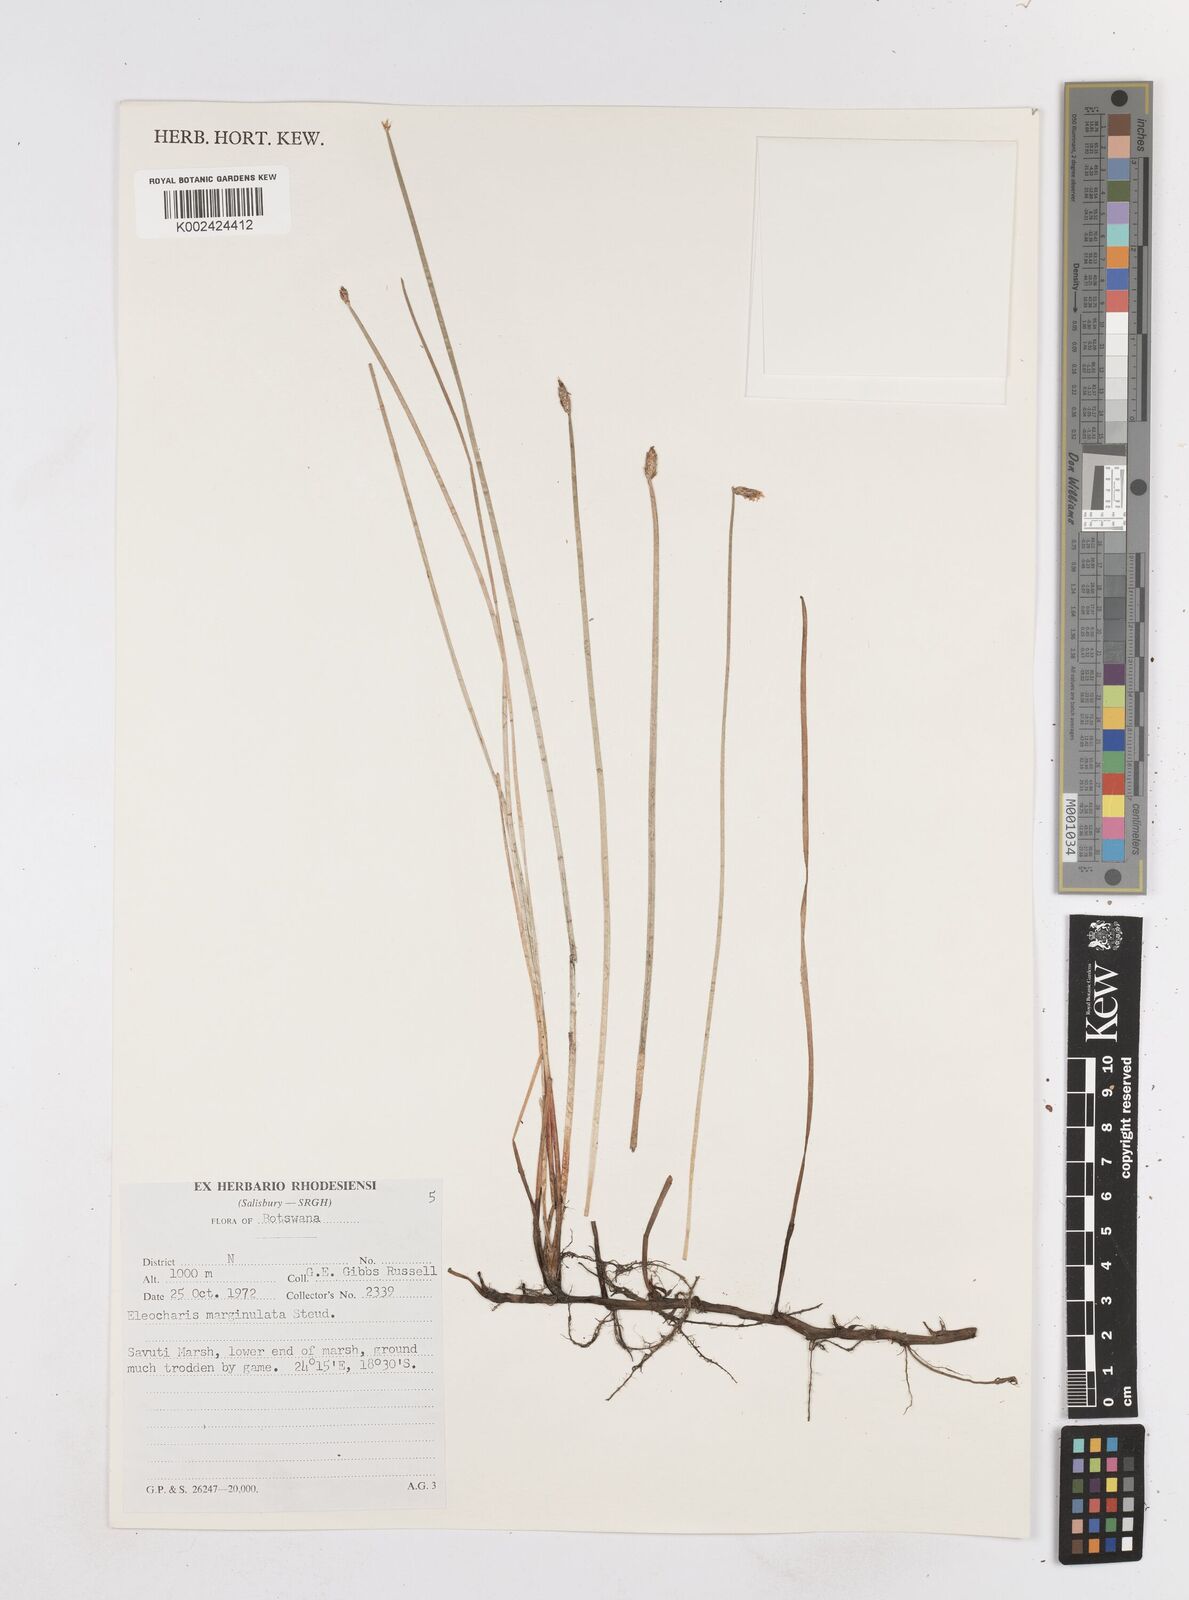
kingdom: Plantae
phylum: Tracheophyta
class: Liliopsida
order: Poales
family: Cyperaceae
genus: Eleocharis
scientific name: Eleocharis marginulata
